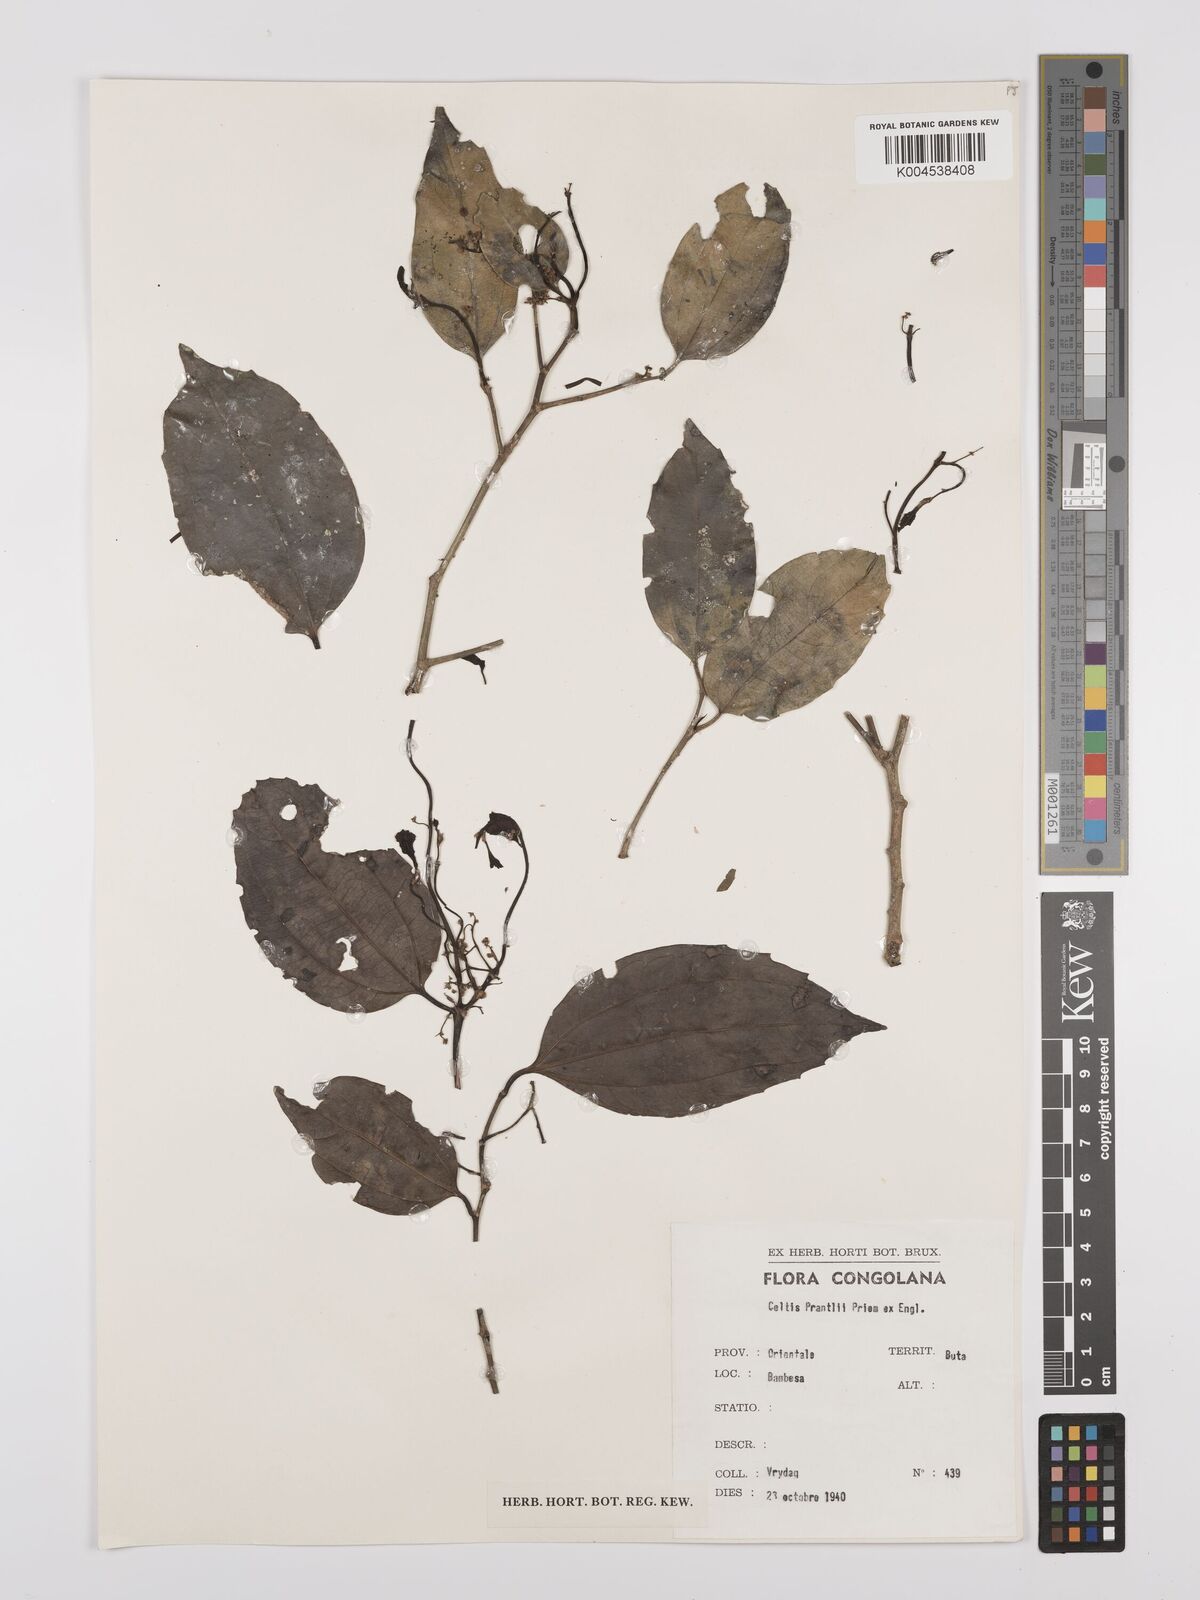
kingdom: Plantae
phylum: Tracheophyta
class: Magnoliopsida
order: Rosales
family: Cannabaceae
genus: Celtis
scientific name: Celtis philippensis
